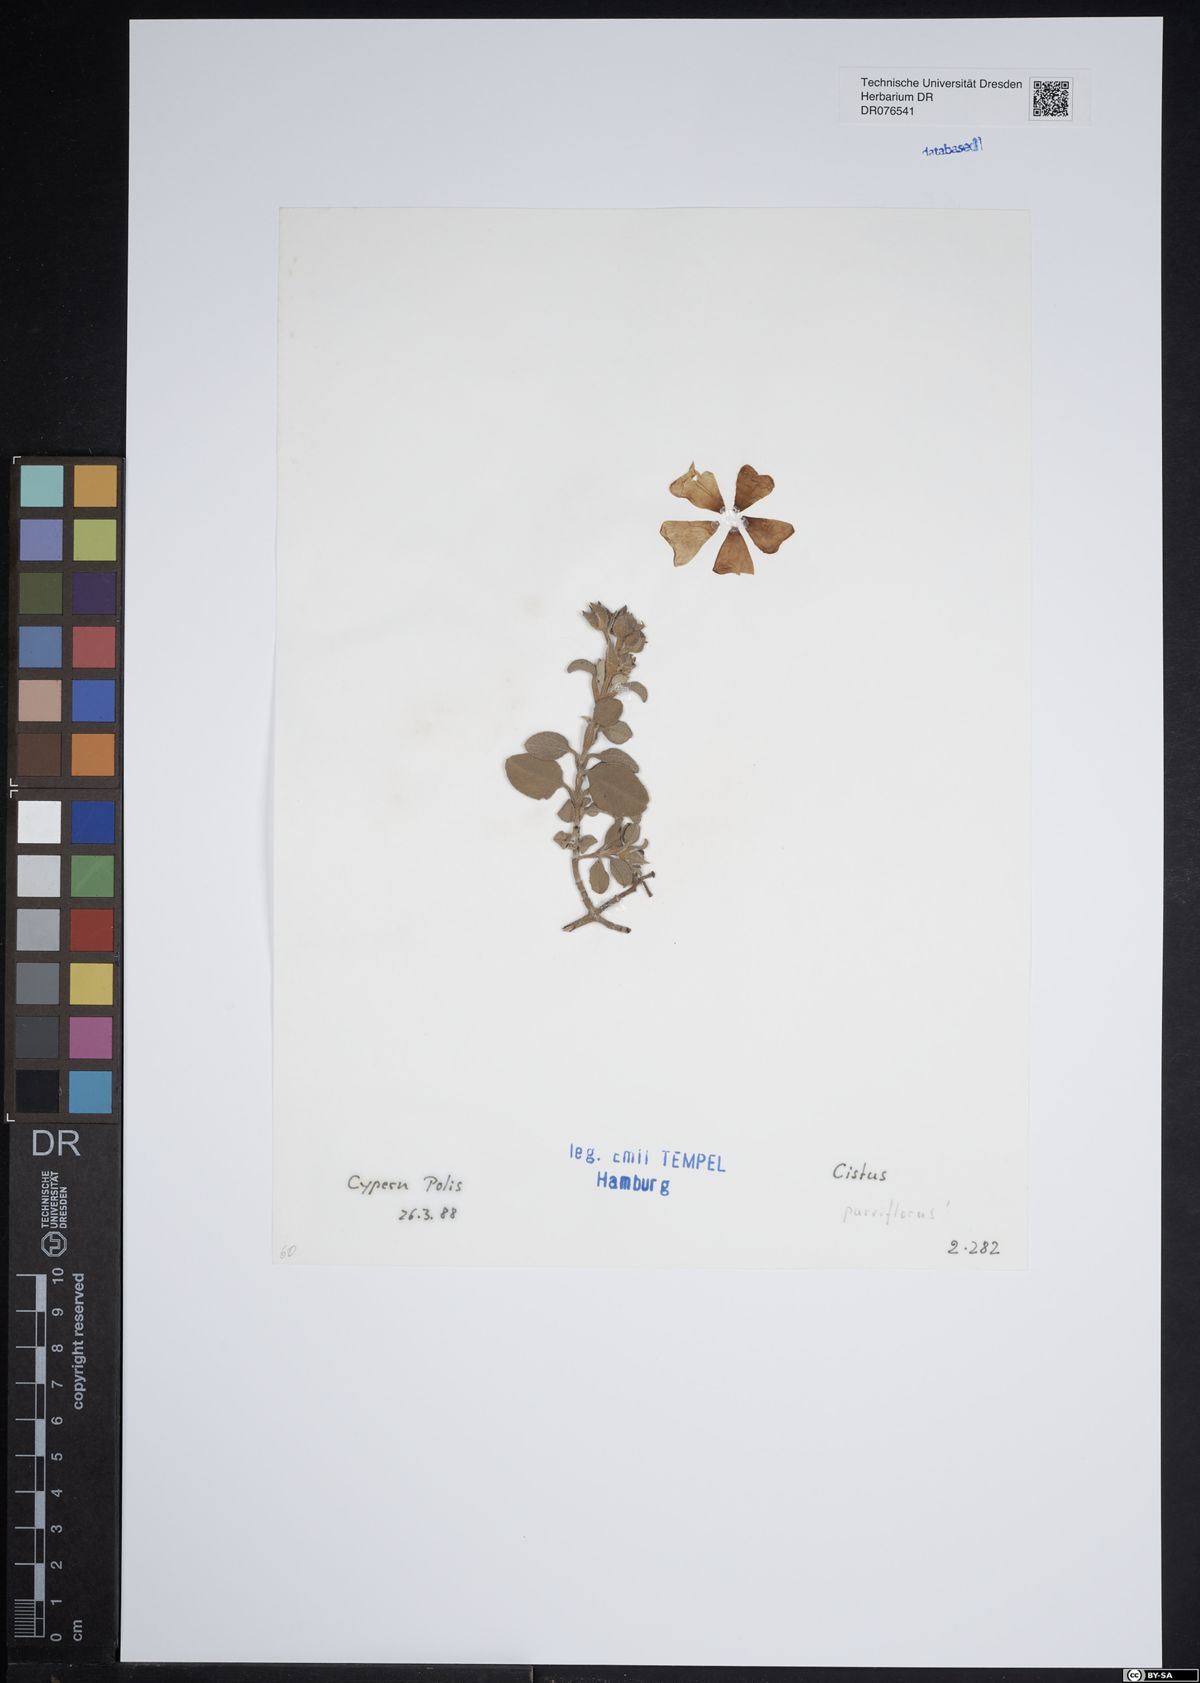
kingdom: Plantae
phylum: Tracheophyta
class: Magnoliopsida
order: Malvales
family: Cistaceae
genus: Cistus
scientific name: Cistus parviflorus
